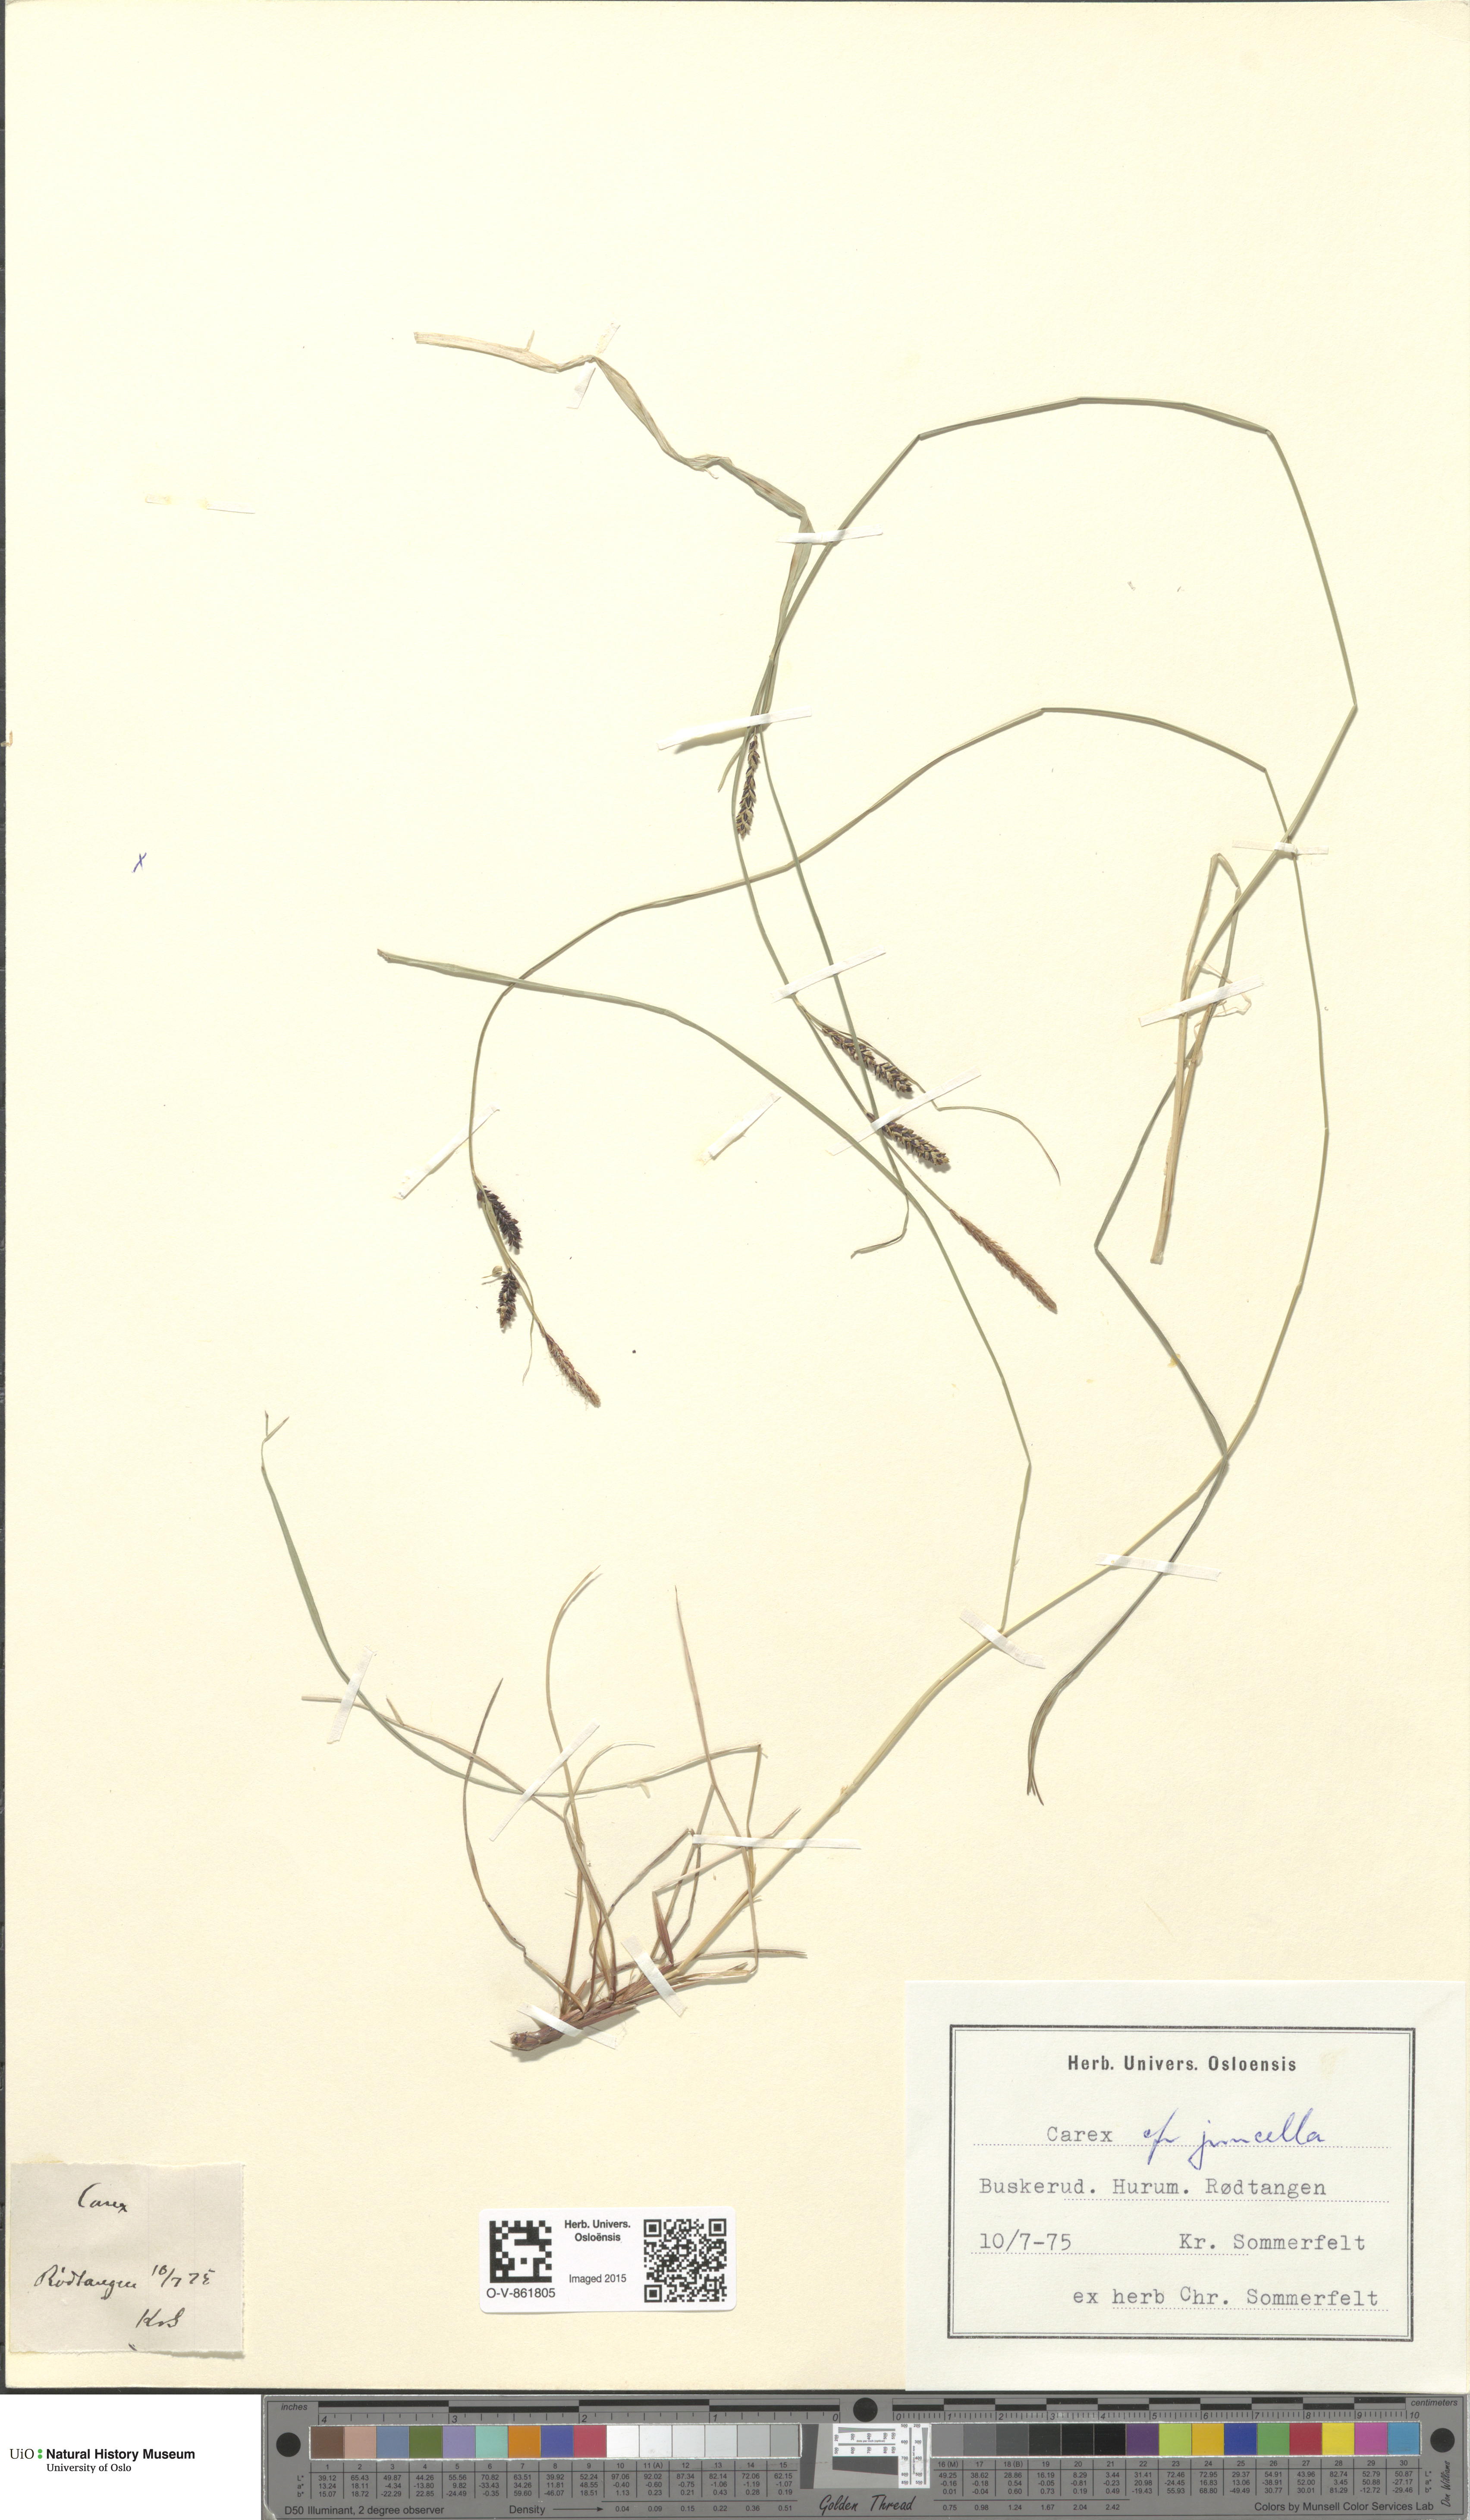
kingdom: Plantae
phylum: Tracheophyta
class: Liliopsida
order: Poales
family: Cyperaceae
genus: Carex
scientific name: Carex nigra
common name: Common sedge
